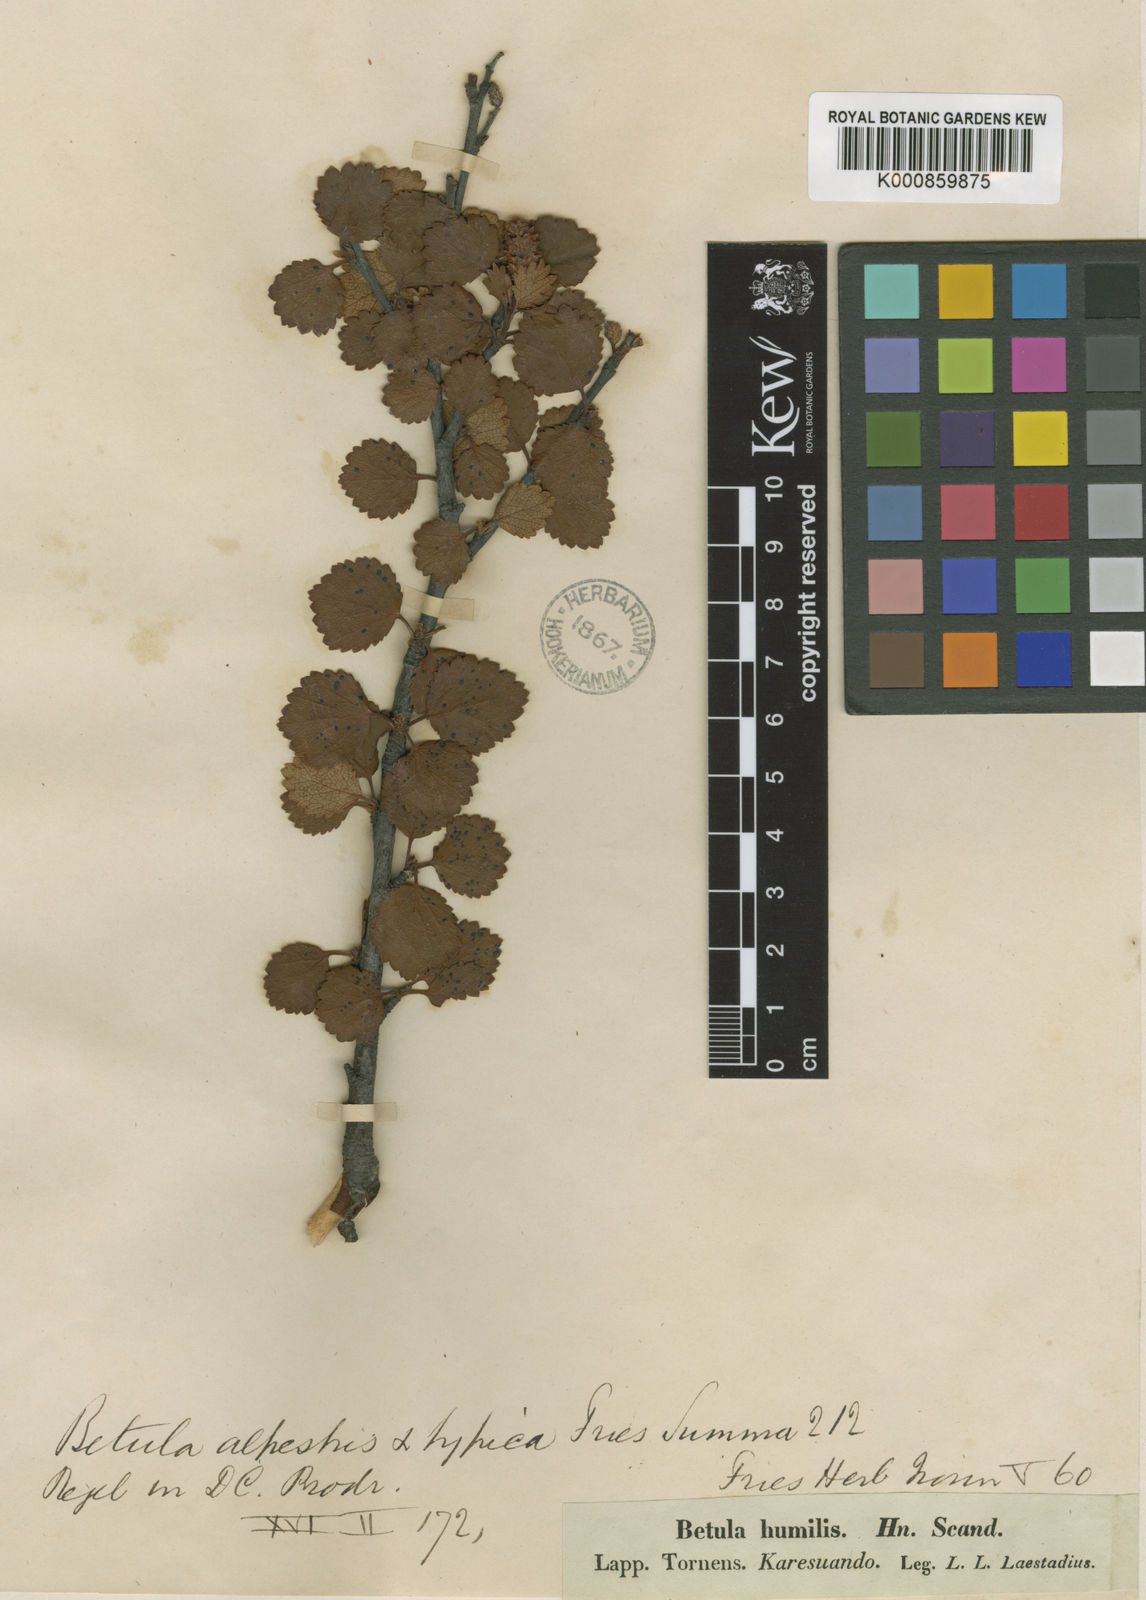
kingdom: Plantae
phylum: Tracheophyta
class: Magnoliopsida
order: Fagales
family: Betulaceae
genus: Betula
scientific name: Betula
